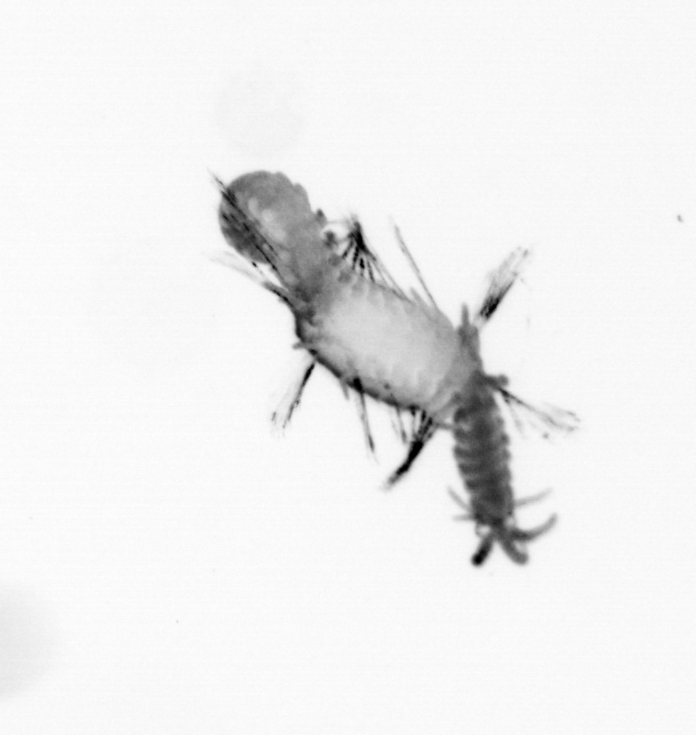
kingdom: Animalia
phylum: Annelida
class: Polychaeta
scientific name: Polychaeta
